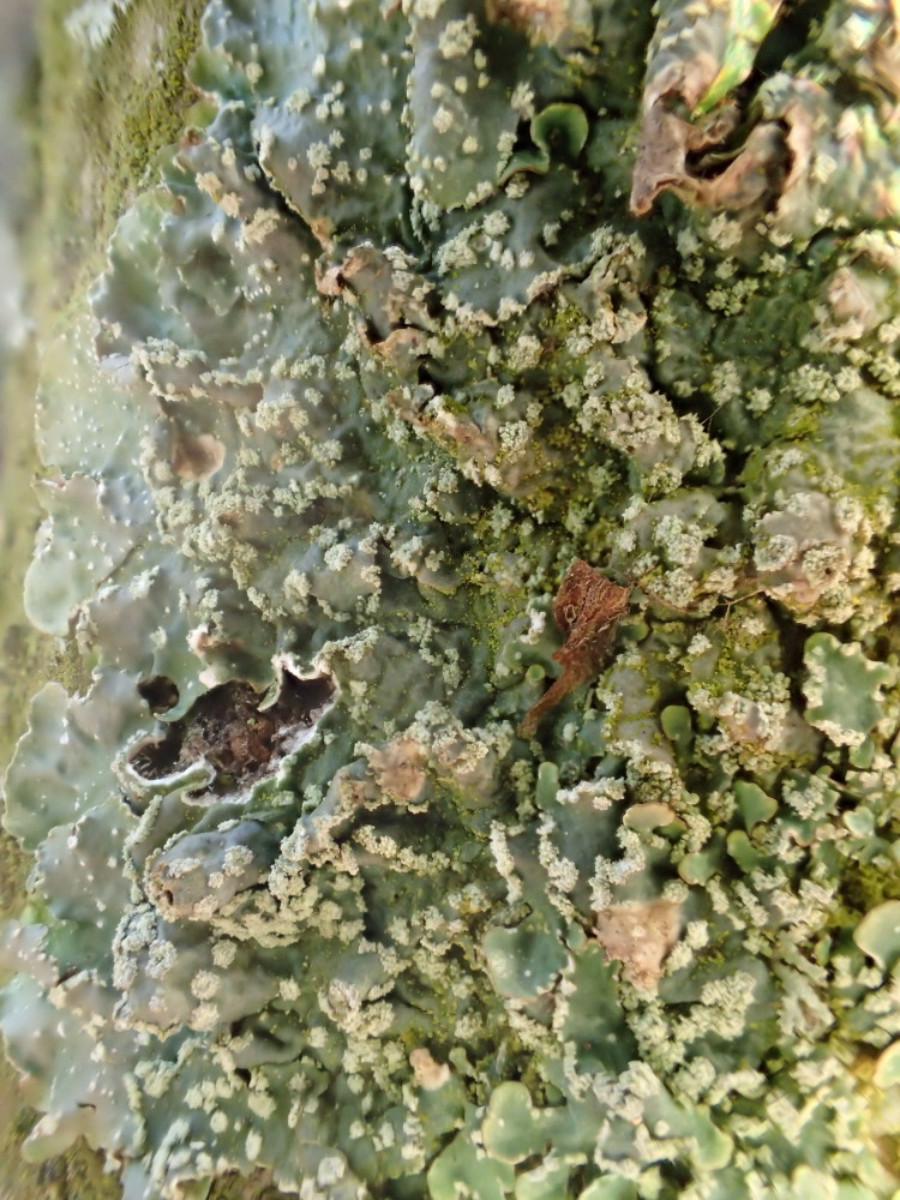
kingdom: Fungi
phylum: Ascomycota
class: Lecanoromycetes
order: Lecanorales
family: Parmeliaceae
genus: Parmelia
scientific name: Parmelia sulcata
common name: rynket skållav
